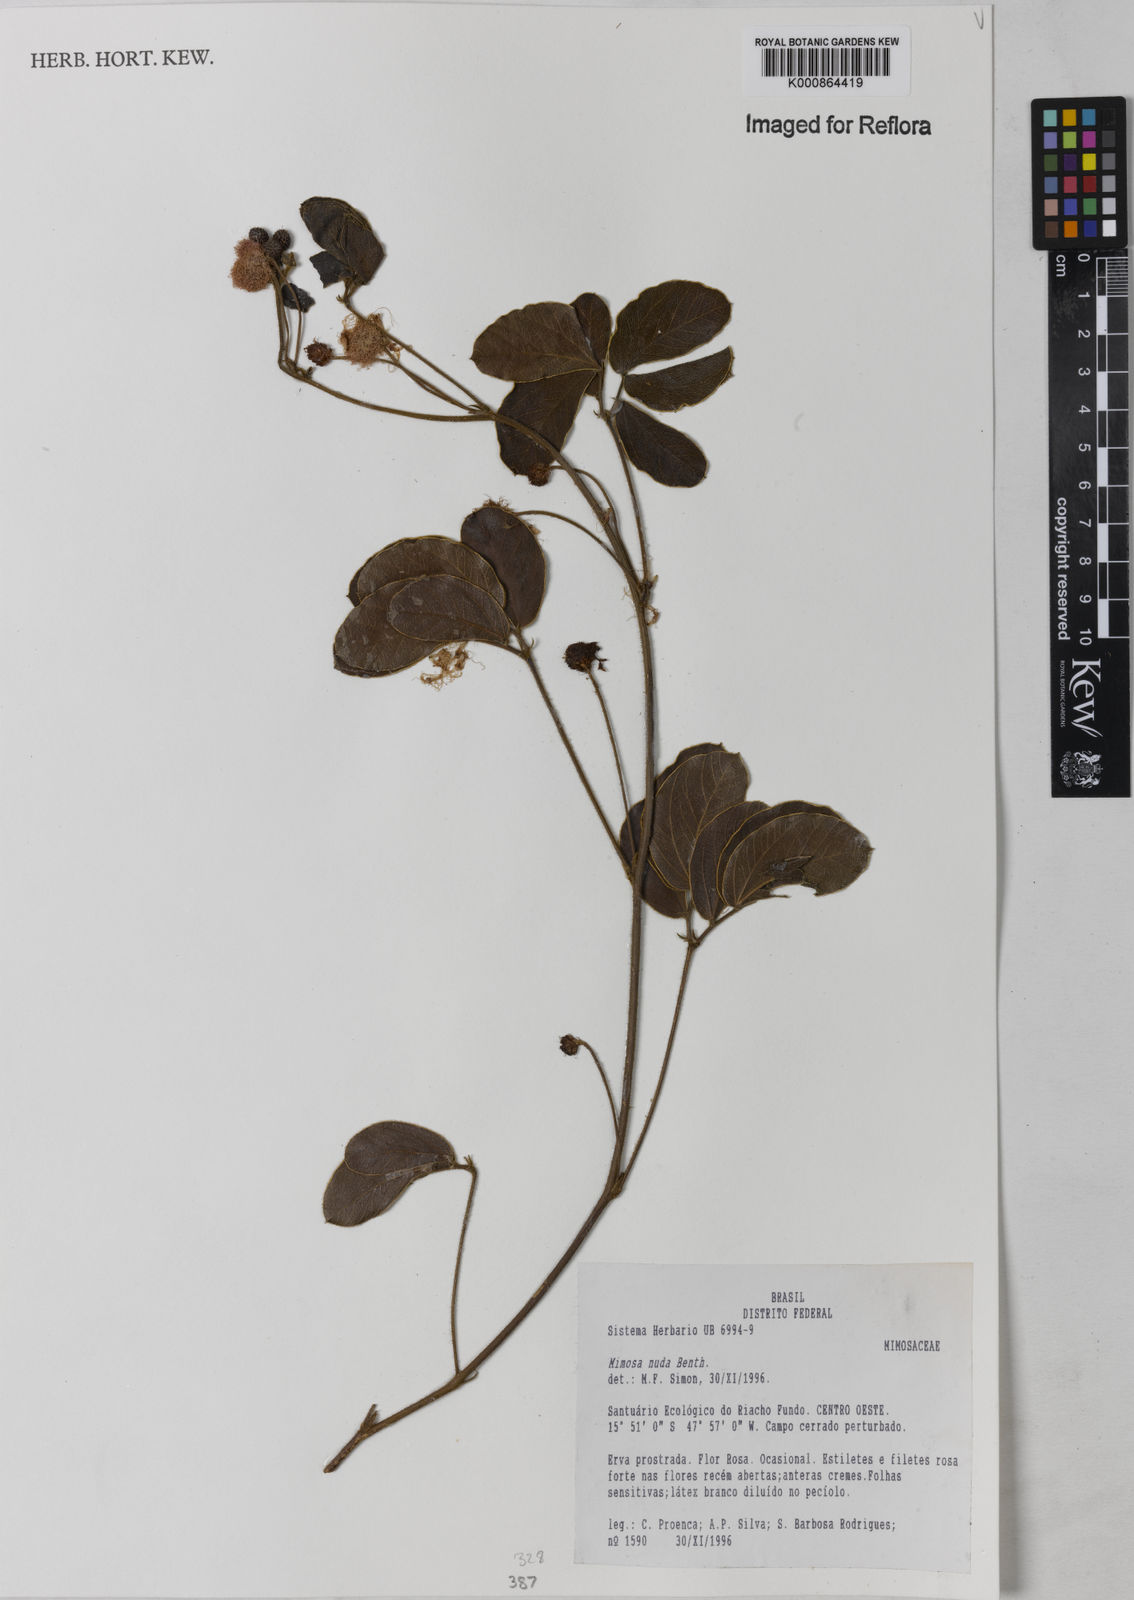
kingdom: Plantae
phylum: Tracheophyta
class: Magnoliopsida
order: Fabales
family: Fabaceae
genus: Mimosa
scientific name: Mimosa debilis
